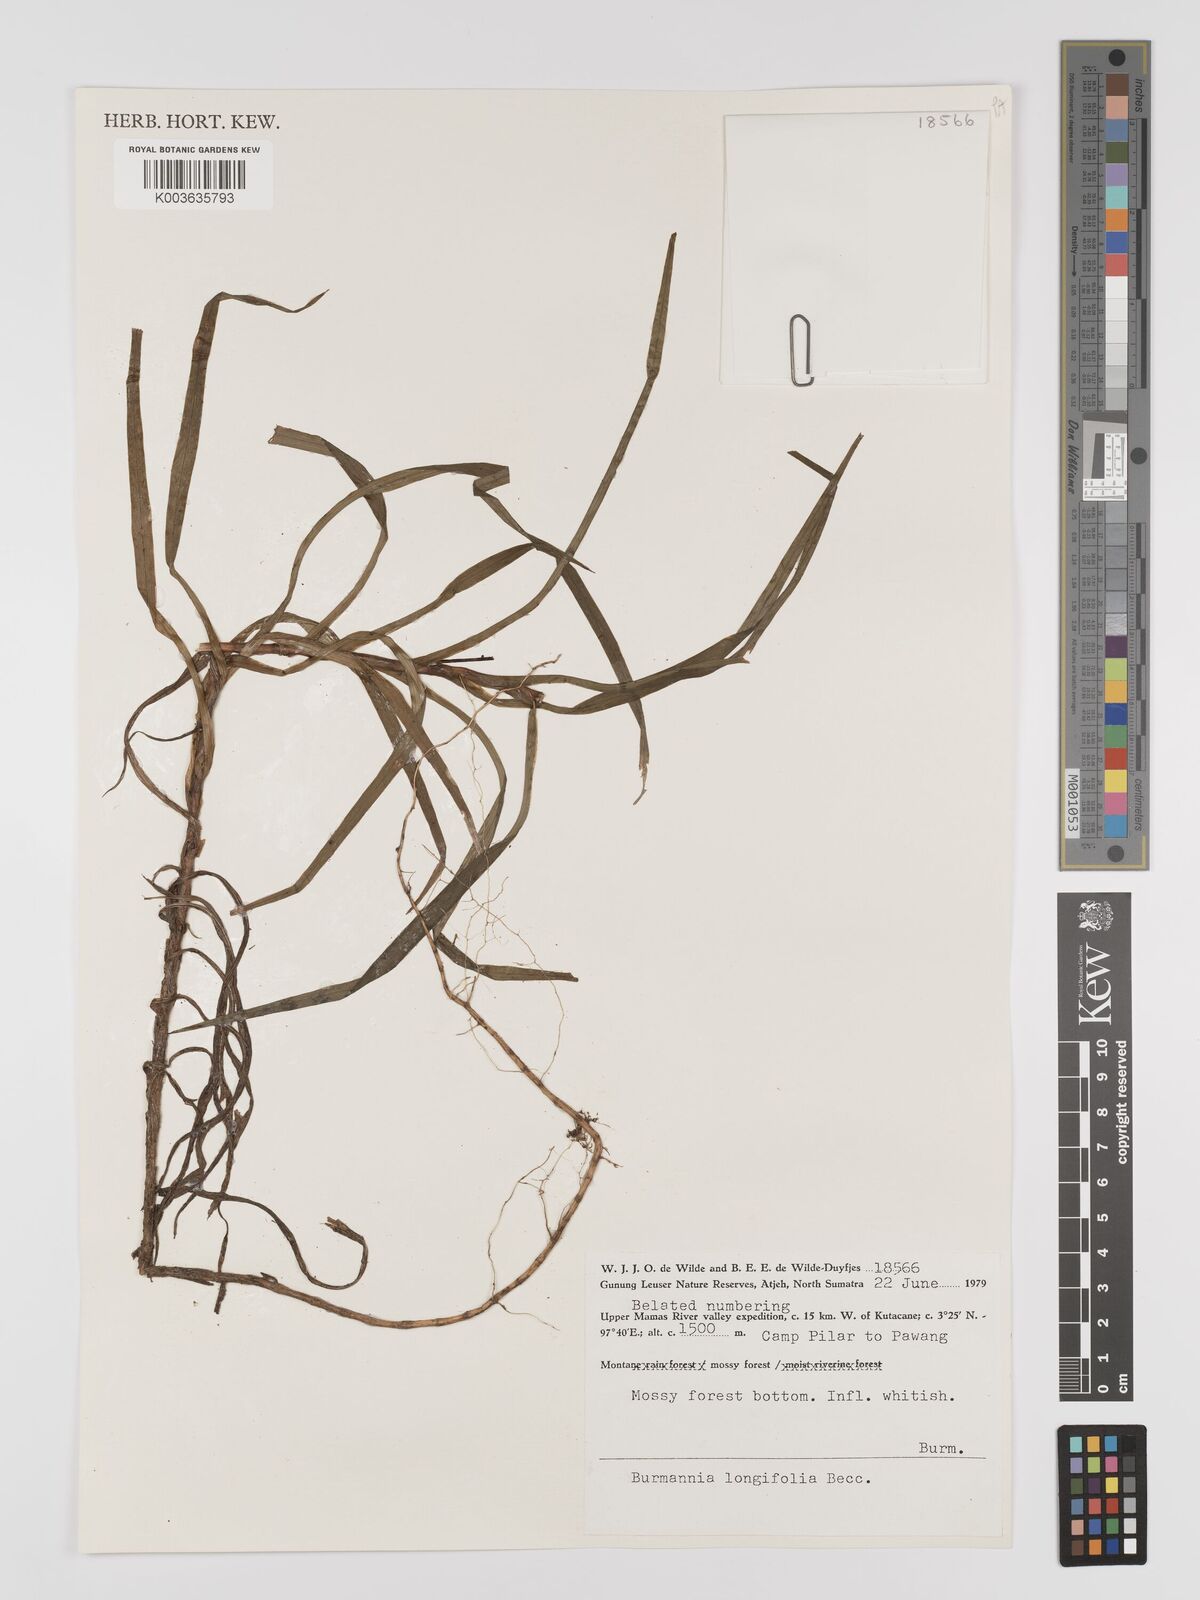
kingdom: Plantae
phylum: Tracheophyta
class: Liliopsida
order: Dioscoreales
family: Burmanniaceae
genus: Burmannia
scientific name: Burmannia longifolia
